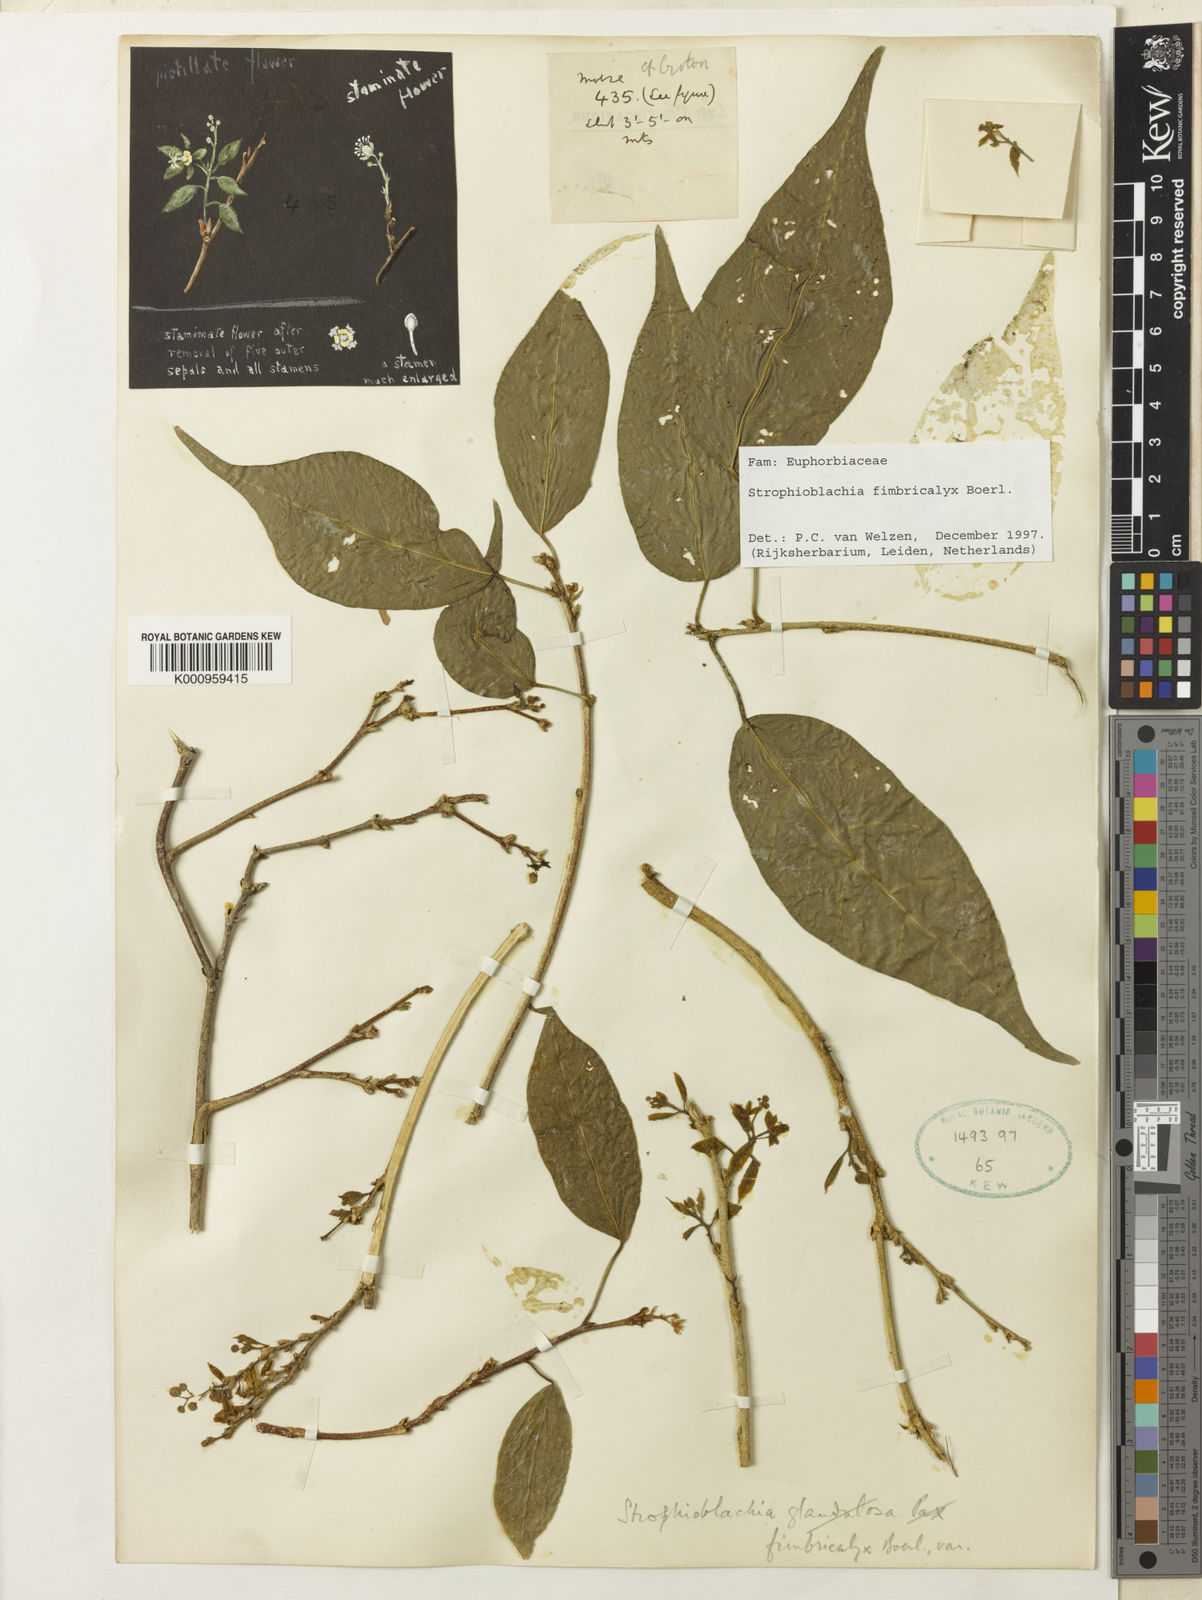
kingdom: Plantae
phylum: Tracheophyta
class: Magnoliopsida
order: Malpighiales
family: Euphorbiaceae
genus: Strophioblachia
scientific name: Strophioblachia fimbricalyx
